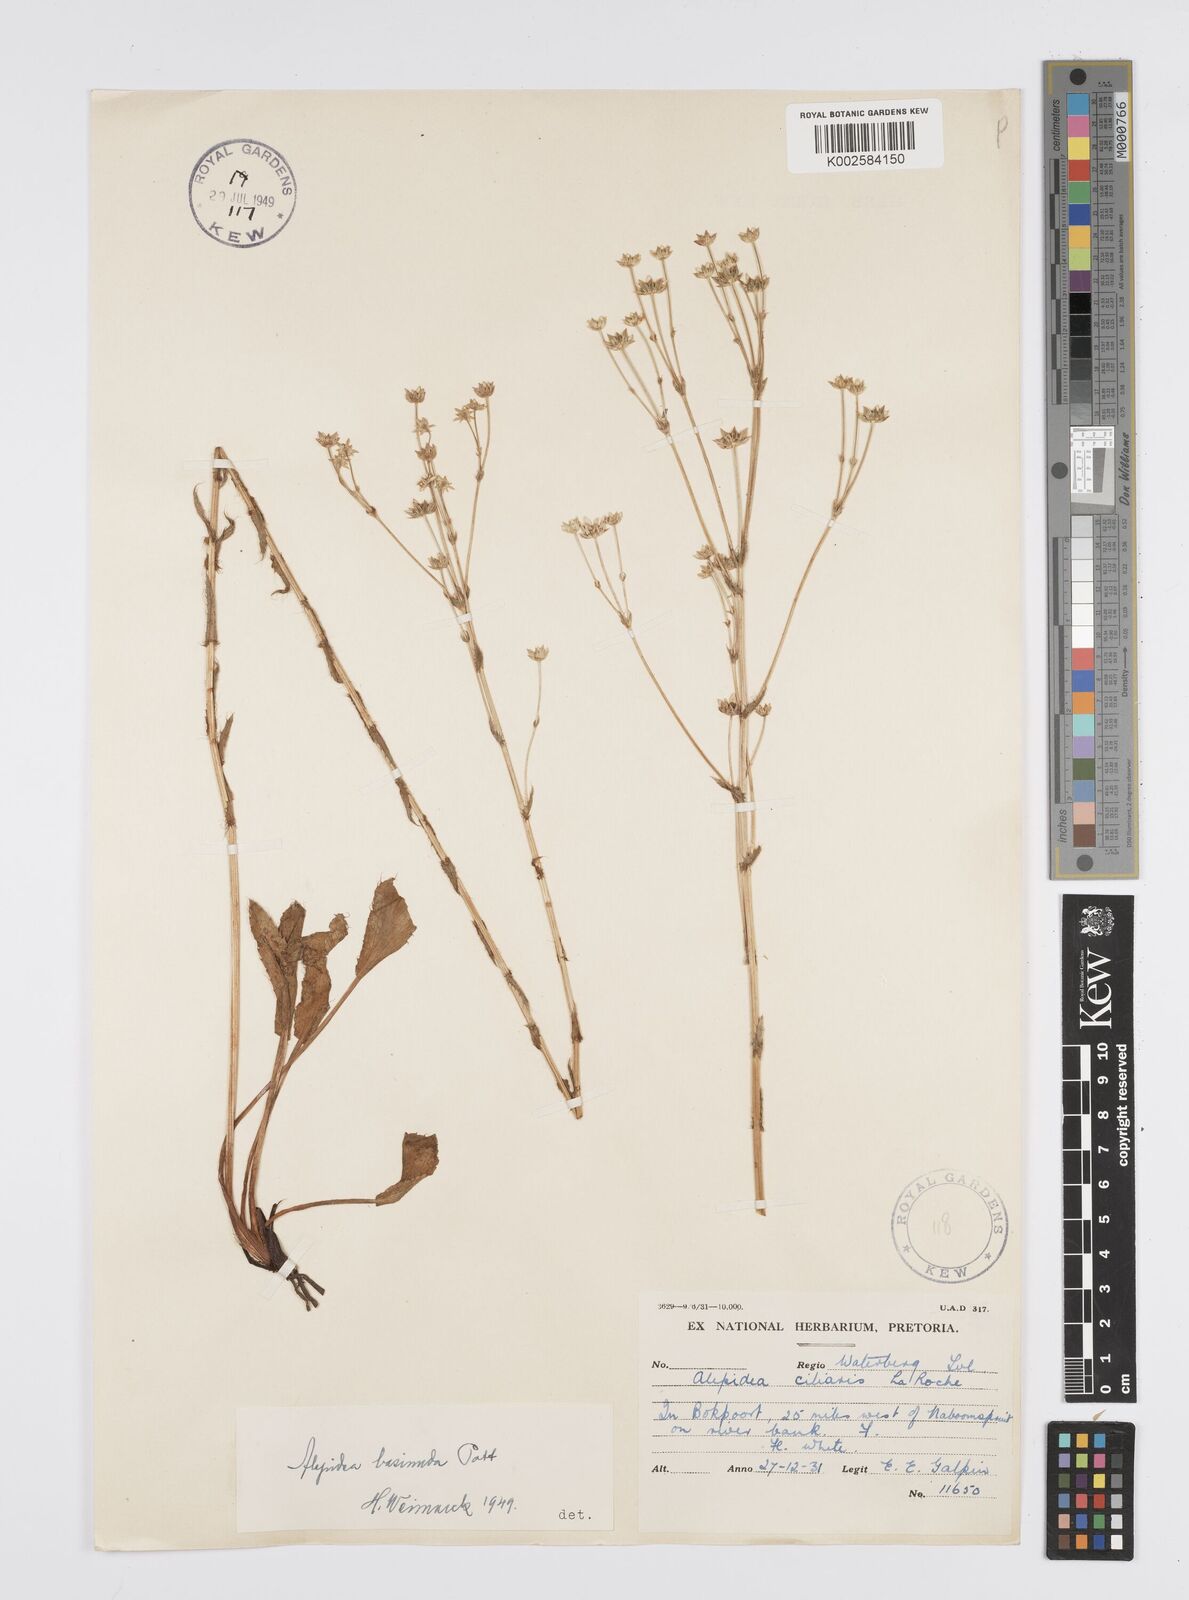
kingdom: Plantae
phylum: Tracheophyta
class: Magnoliopsida
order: Apiales
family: Apiaceae
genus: Alepidea
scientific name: Alepidea setifera
